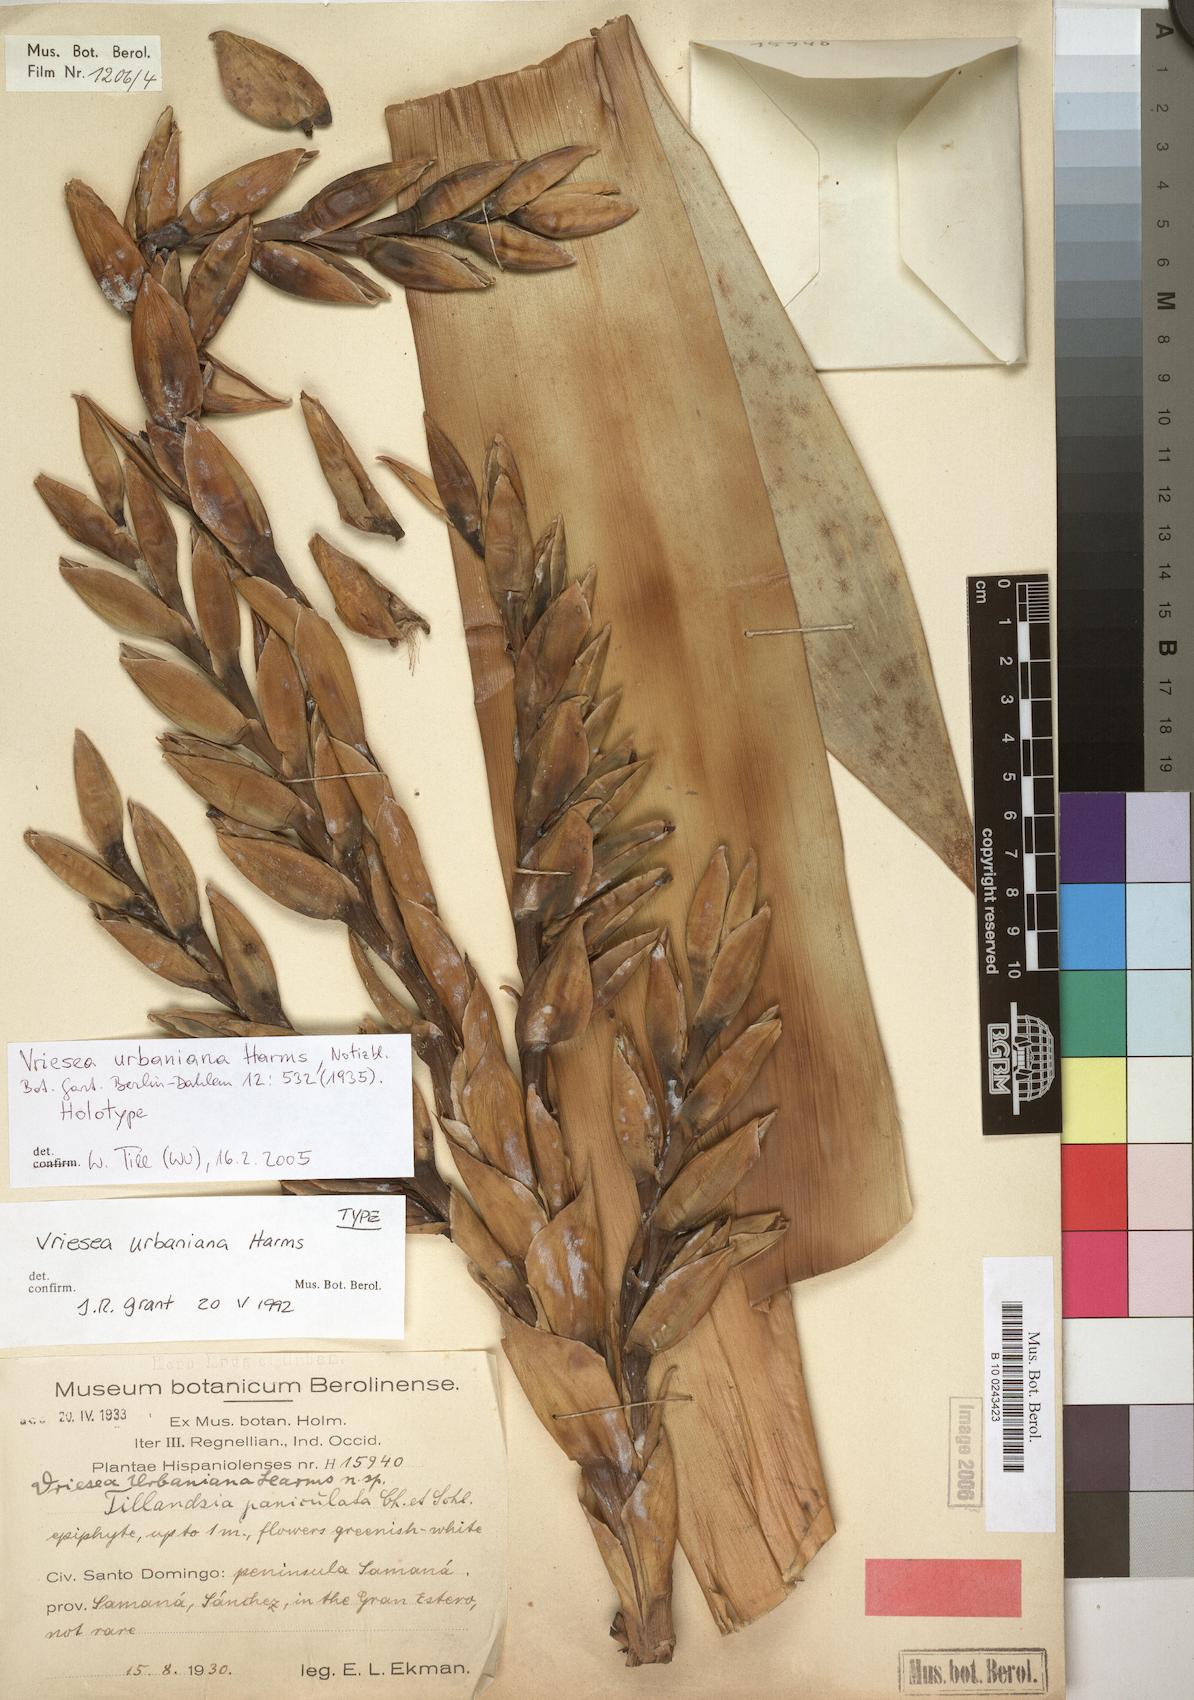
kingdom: Plantae
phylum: Tracheophyta
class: Liliopsida
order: Poales
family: Bromeliaceae
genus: Werauhia
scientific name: Werauhia urbaniana
